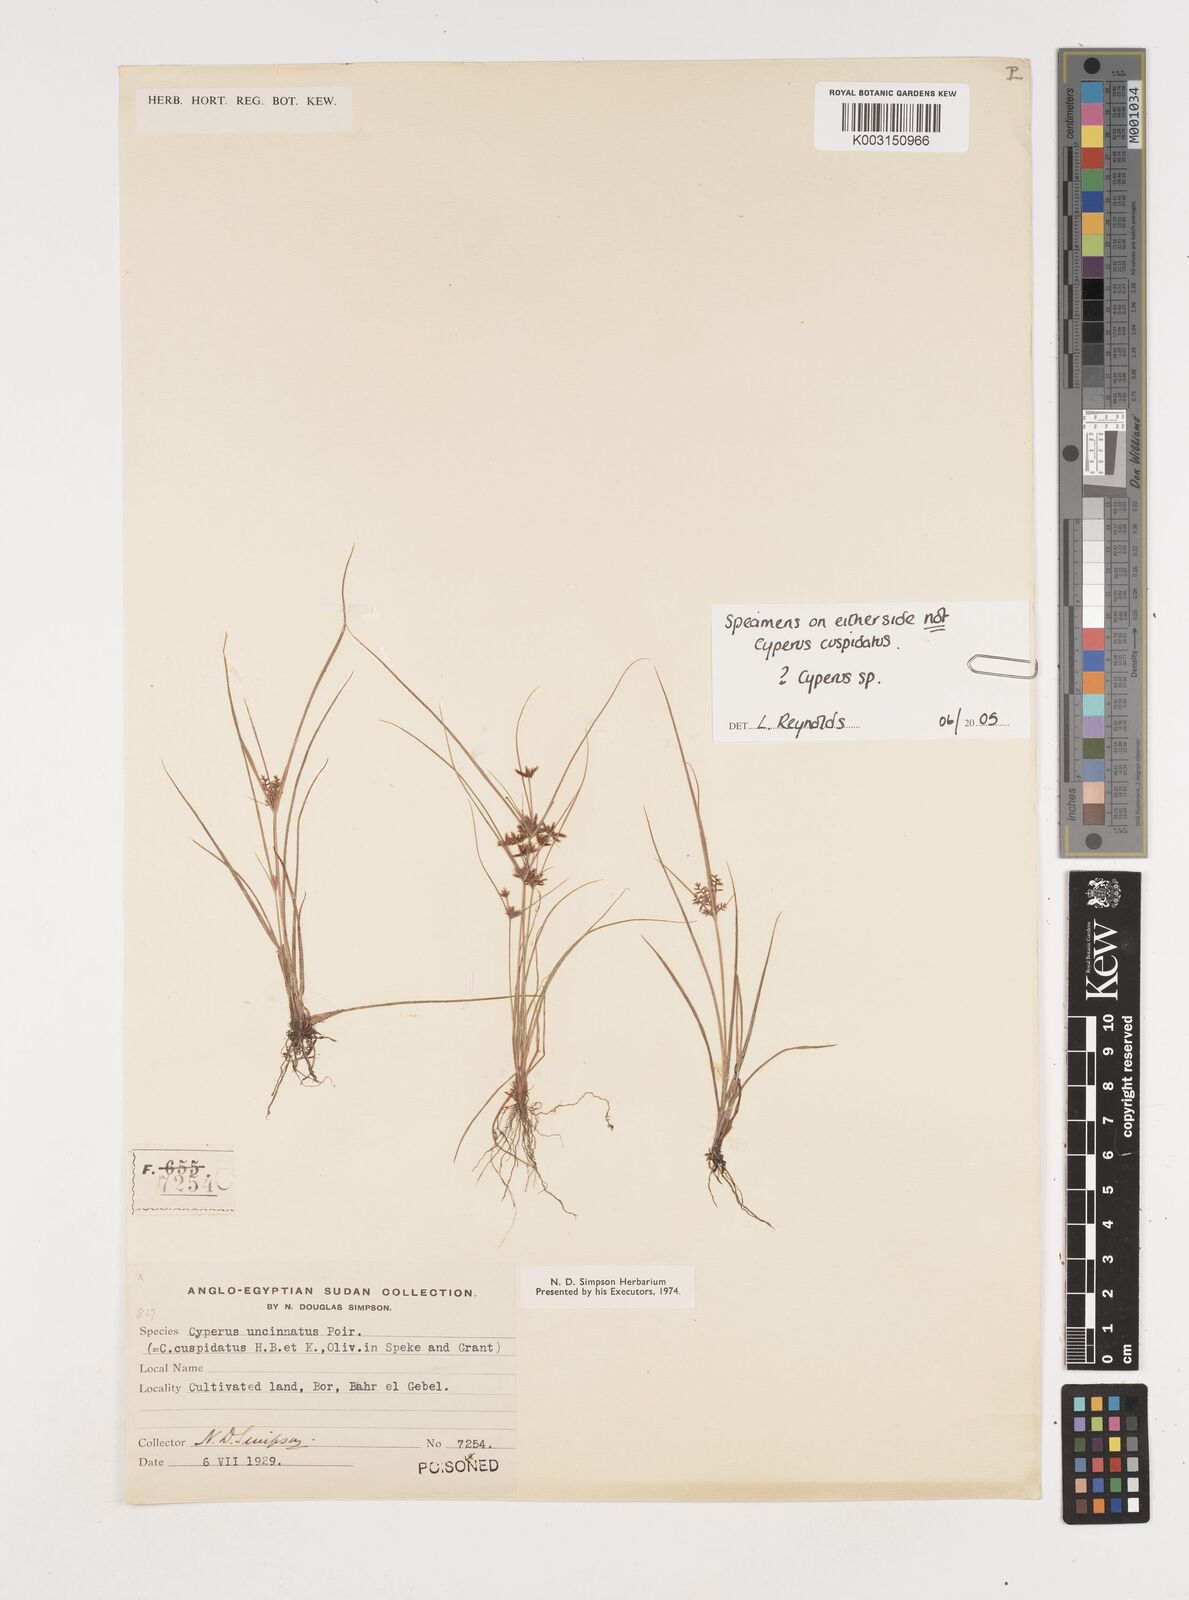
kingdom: Plantae
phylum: Tracheophyta
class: Liliopsida
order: Poales
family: Cyperaceae
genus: Cyperus
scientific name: Cyperus
